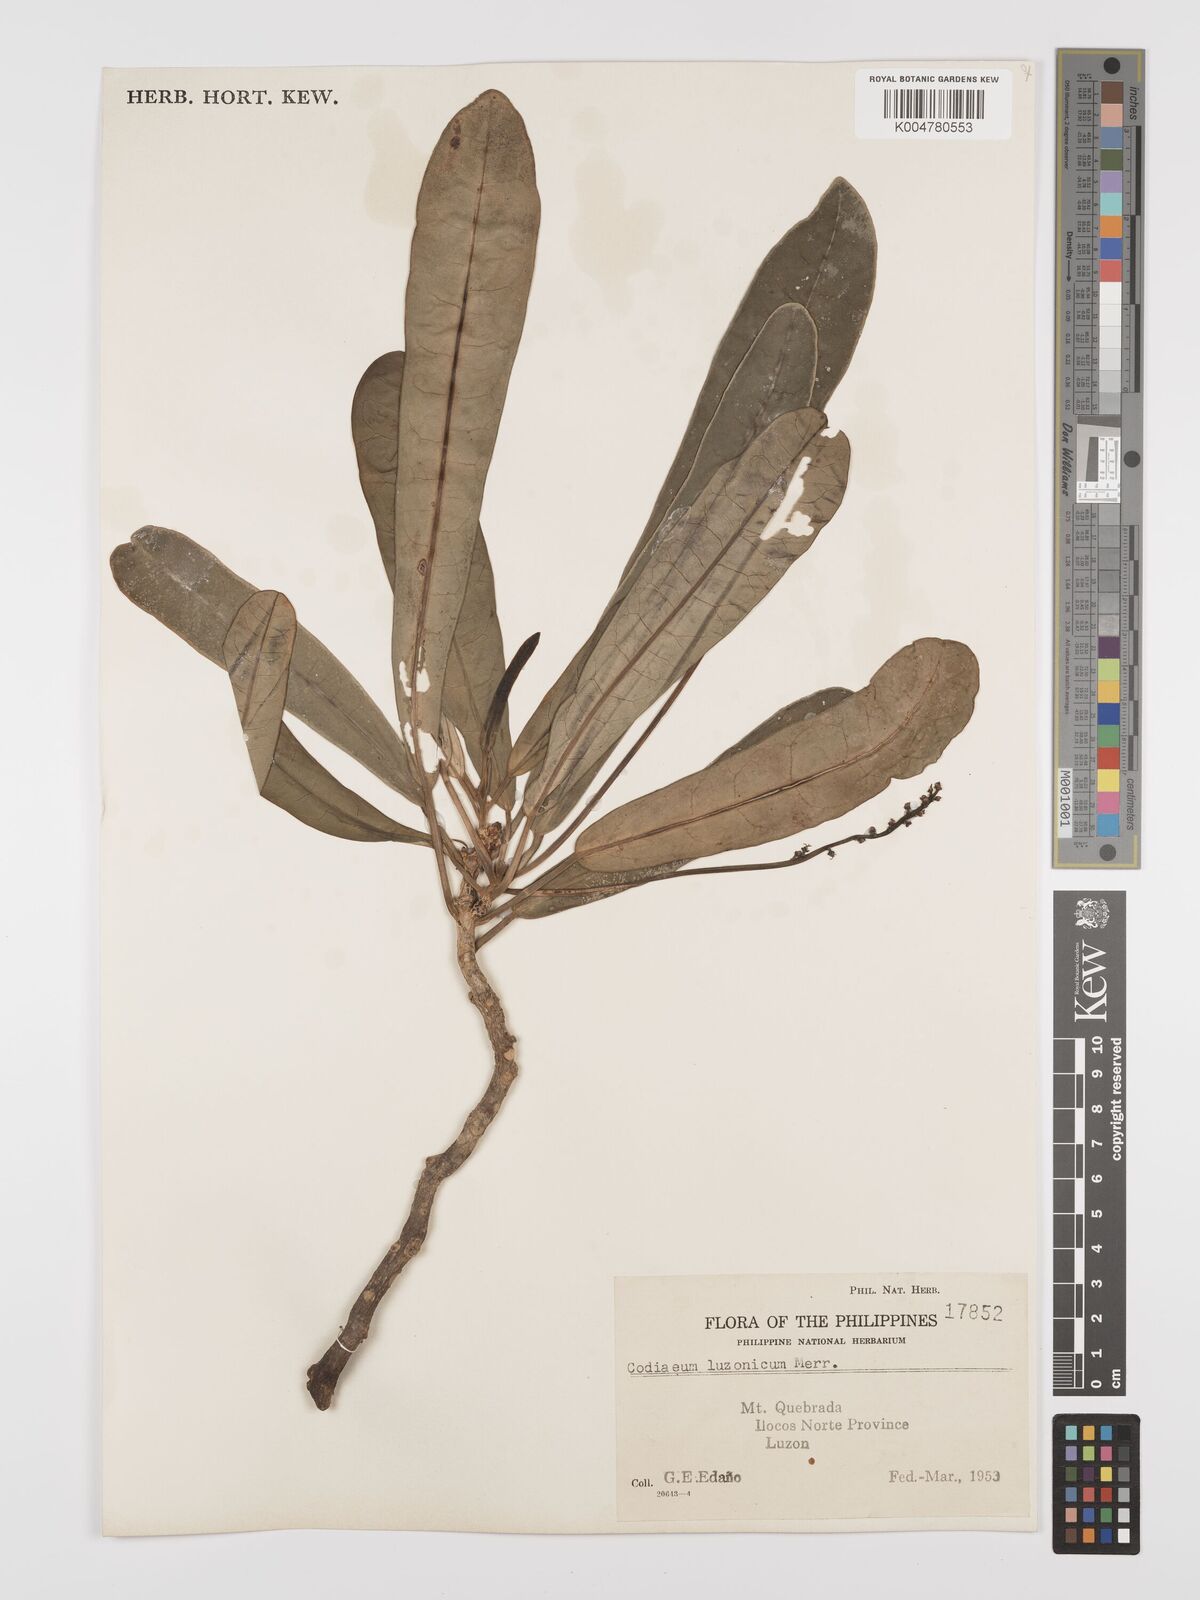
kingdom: Plantae
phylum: Tracheophyta
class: Magnoliopsida
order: Malpighiales
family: Euphorbiaceae
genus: Codiaeum
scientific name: Codiaeum luzonicum
